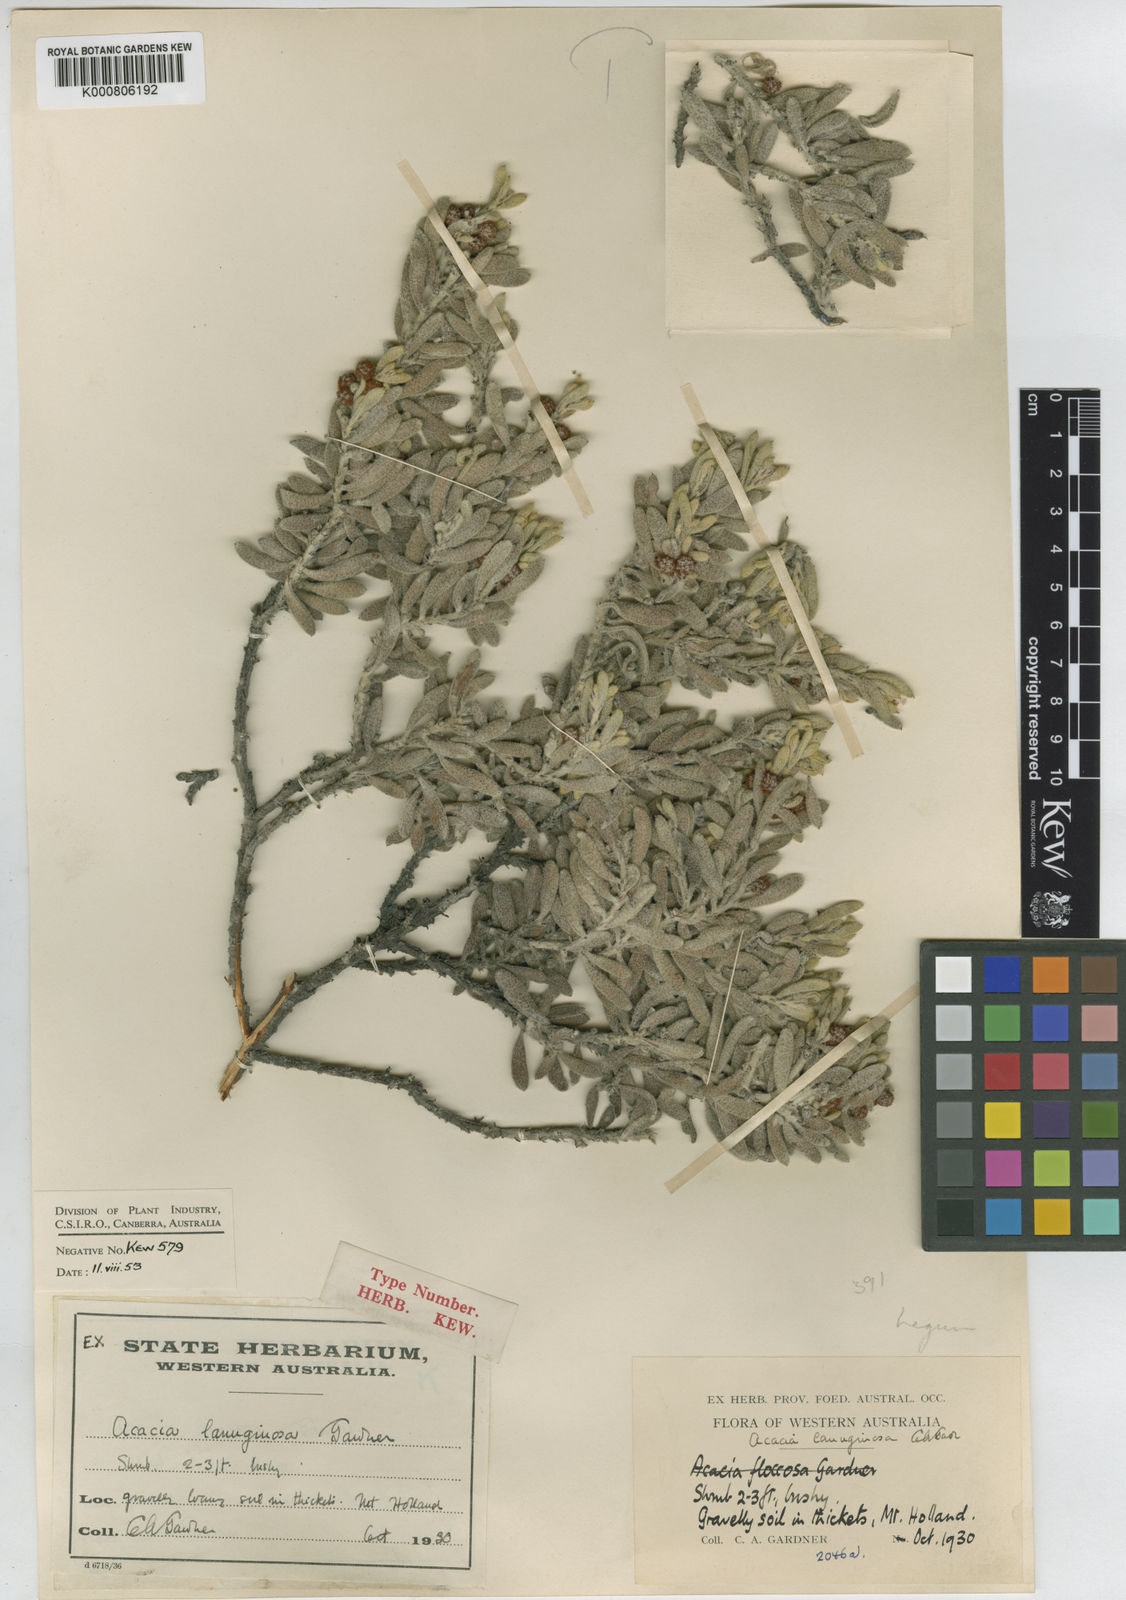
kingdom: Plantae
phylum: Tracheophyta
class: Magnoliopsida
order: Fabales
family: Fabaceae
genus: Acacia
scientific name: Acacia lanuginophylla
